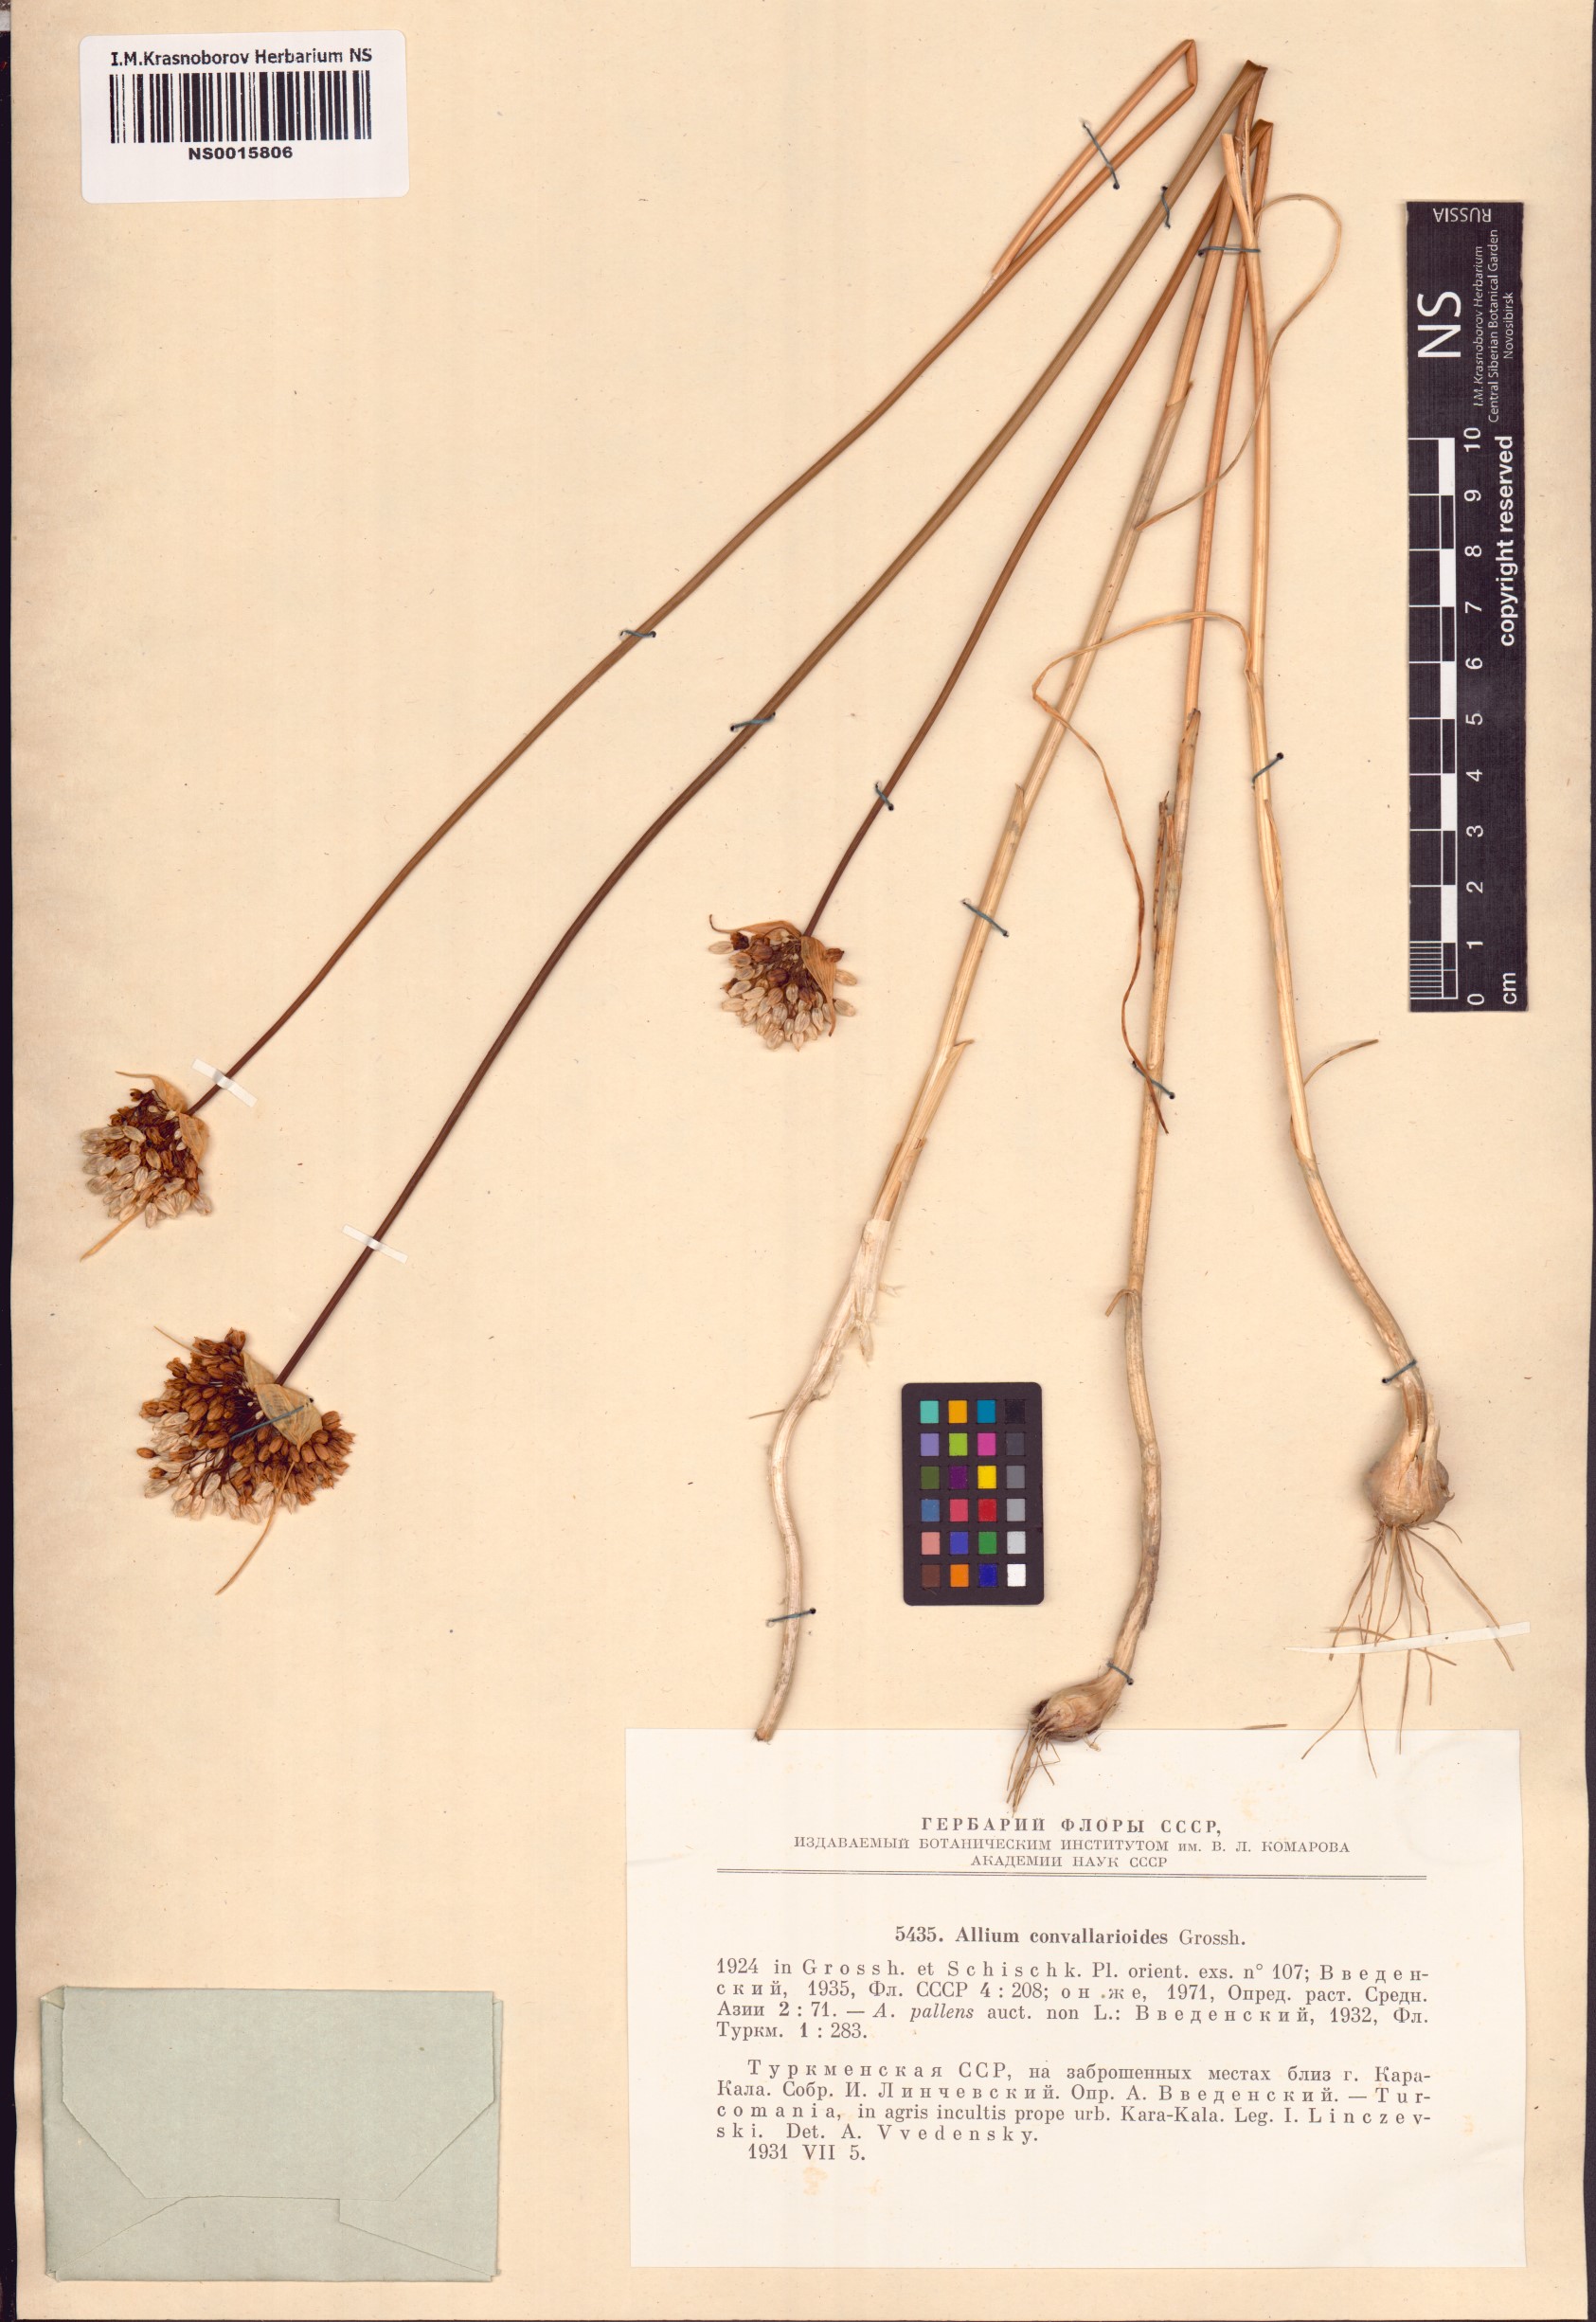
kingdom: Plantae
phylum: Tracheophyta
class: Liliopsida
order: Asparagales
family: Amaryllidaceae
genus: Allium
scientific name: Allium convallarioides
